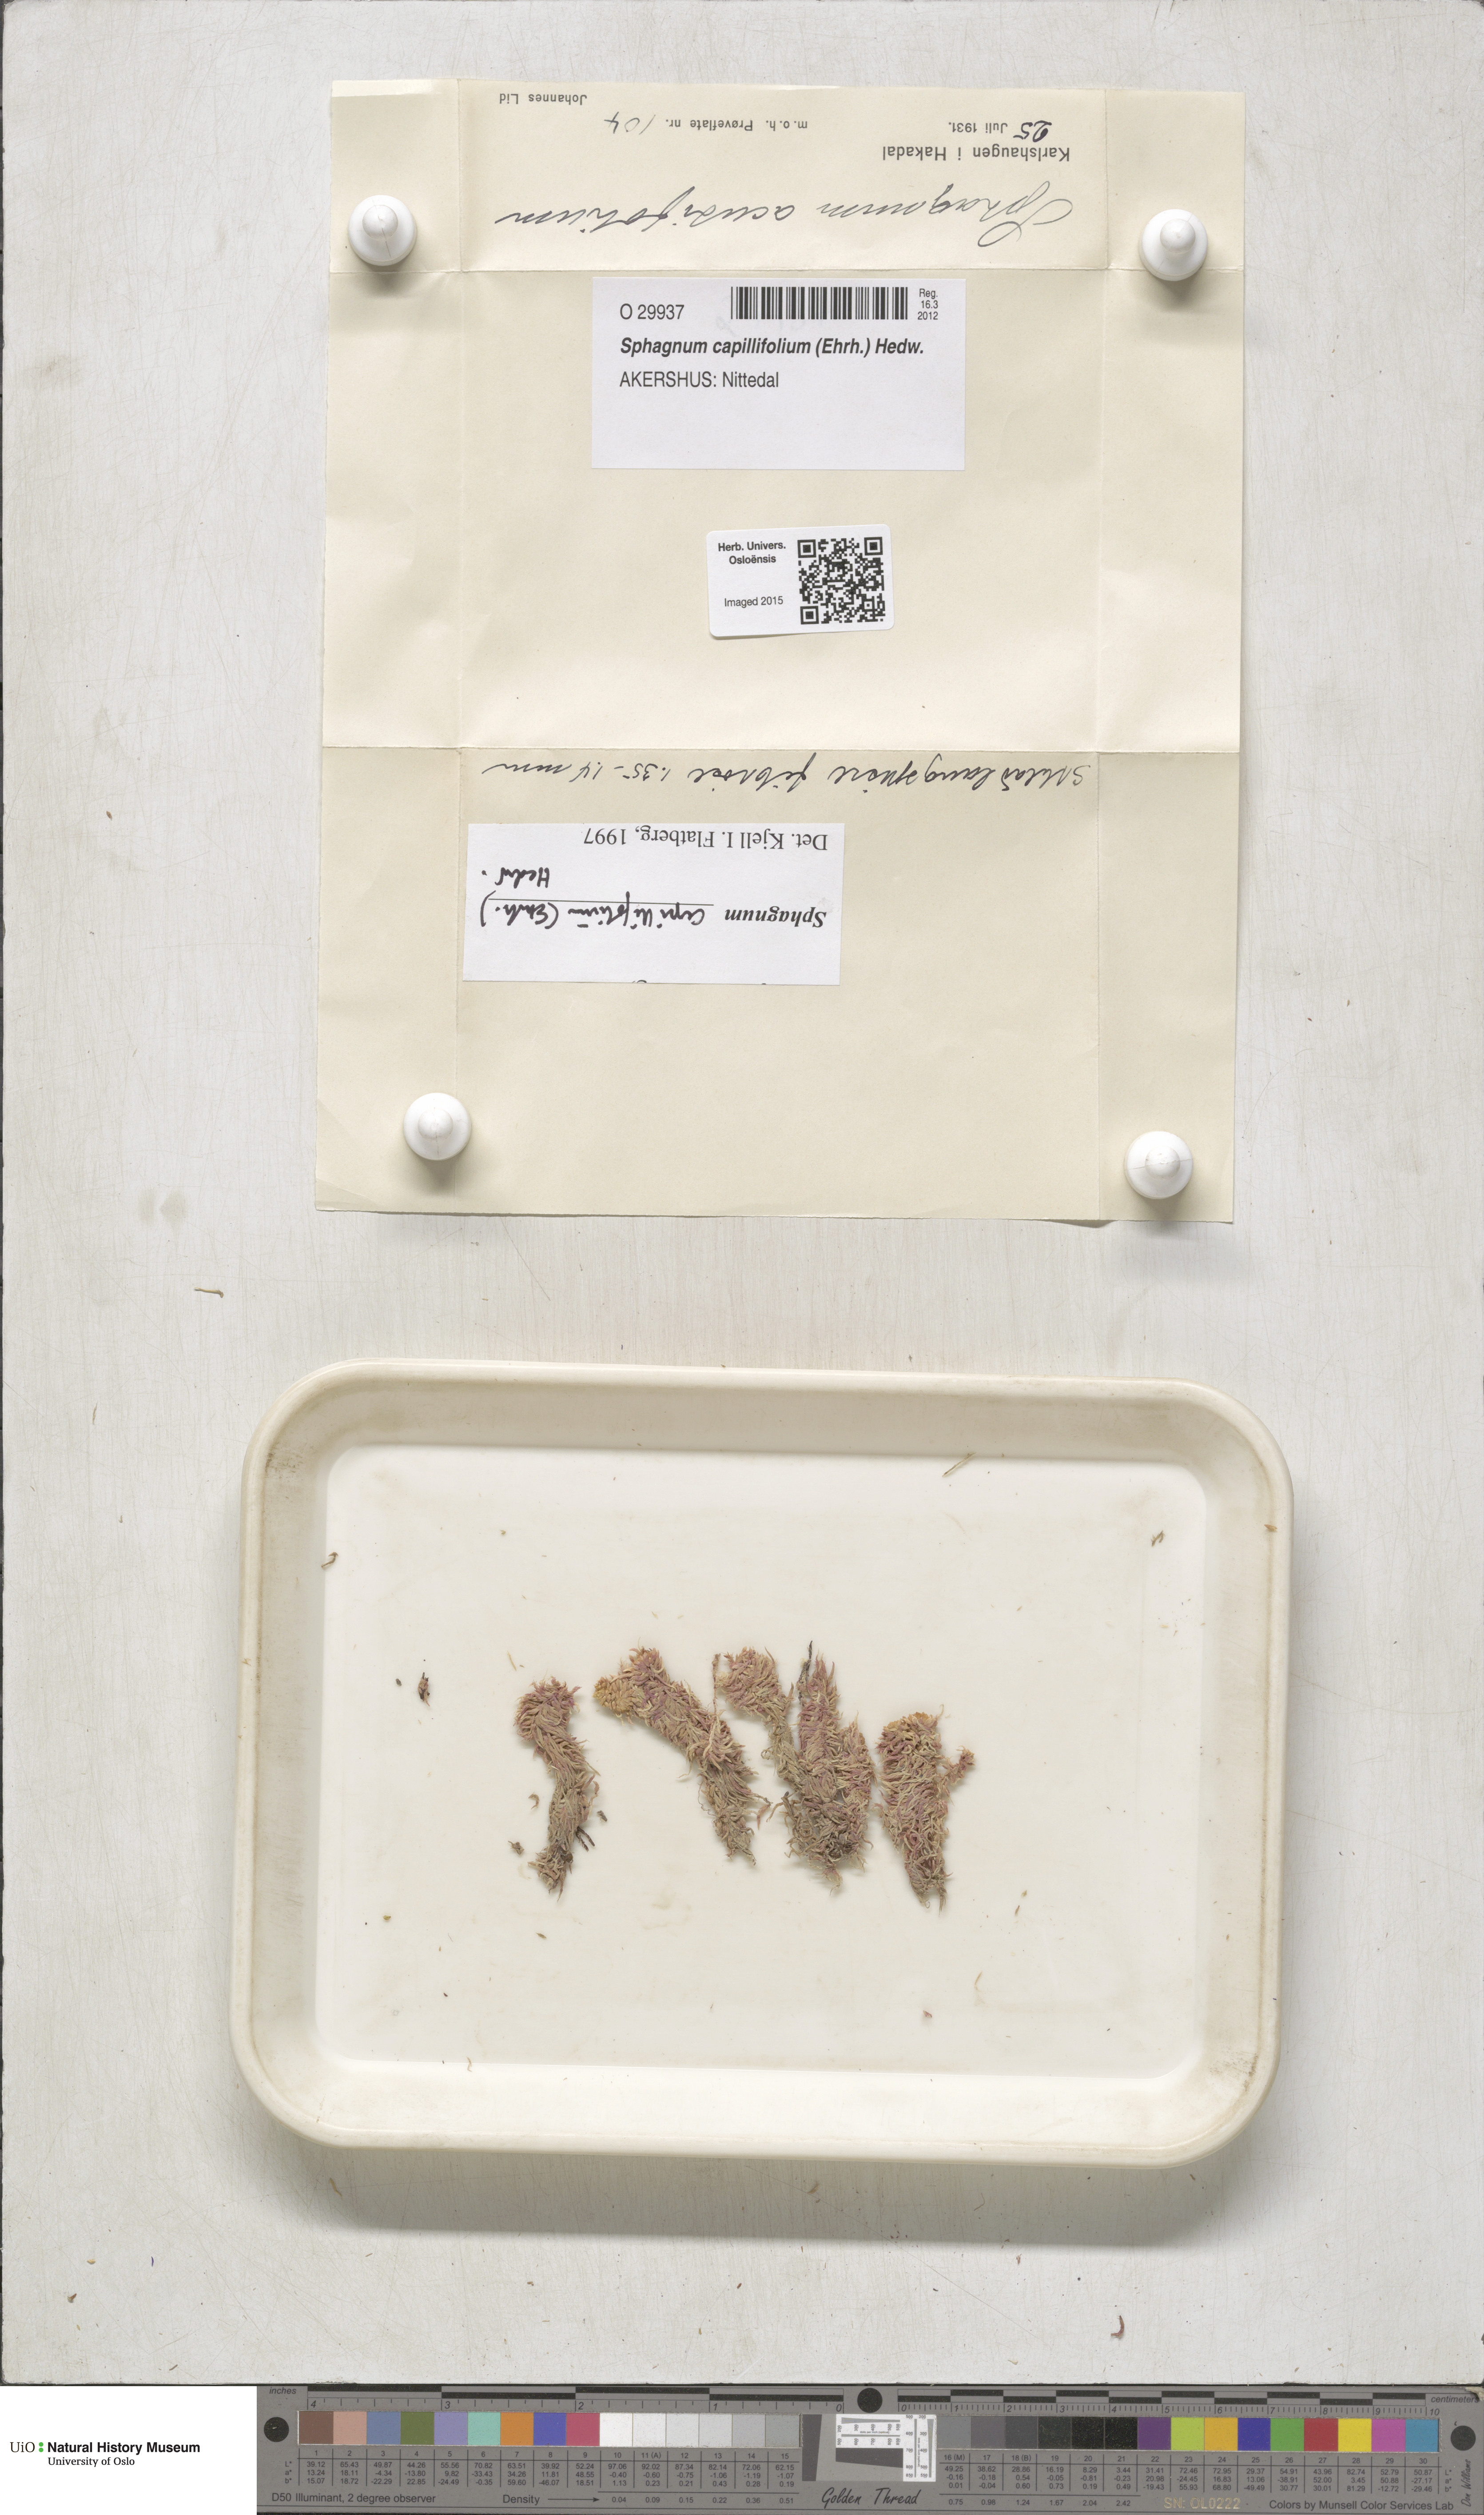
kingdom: Plantae
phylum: Bryophyta
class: Sphagnopsida
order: Sphagnales
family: Sphagnaceae
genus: Sphagnum
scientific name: Sphagnum capillifolium
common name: Small red peat moss
